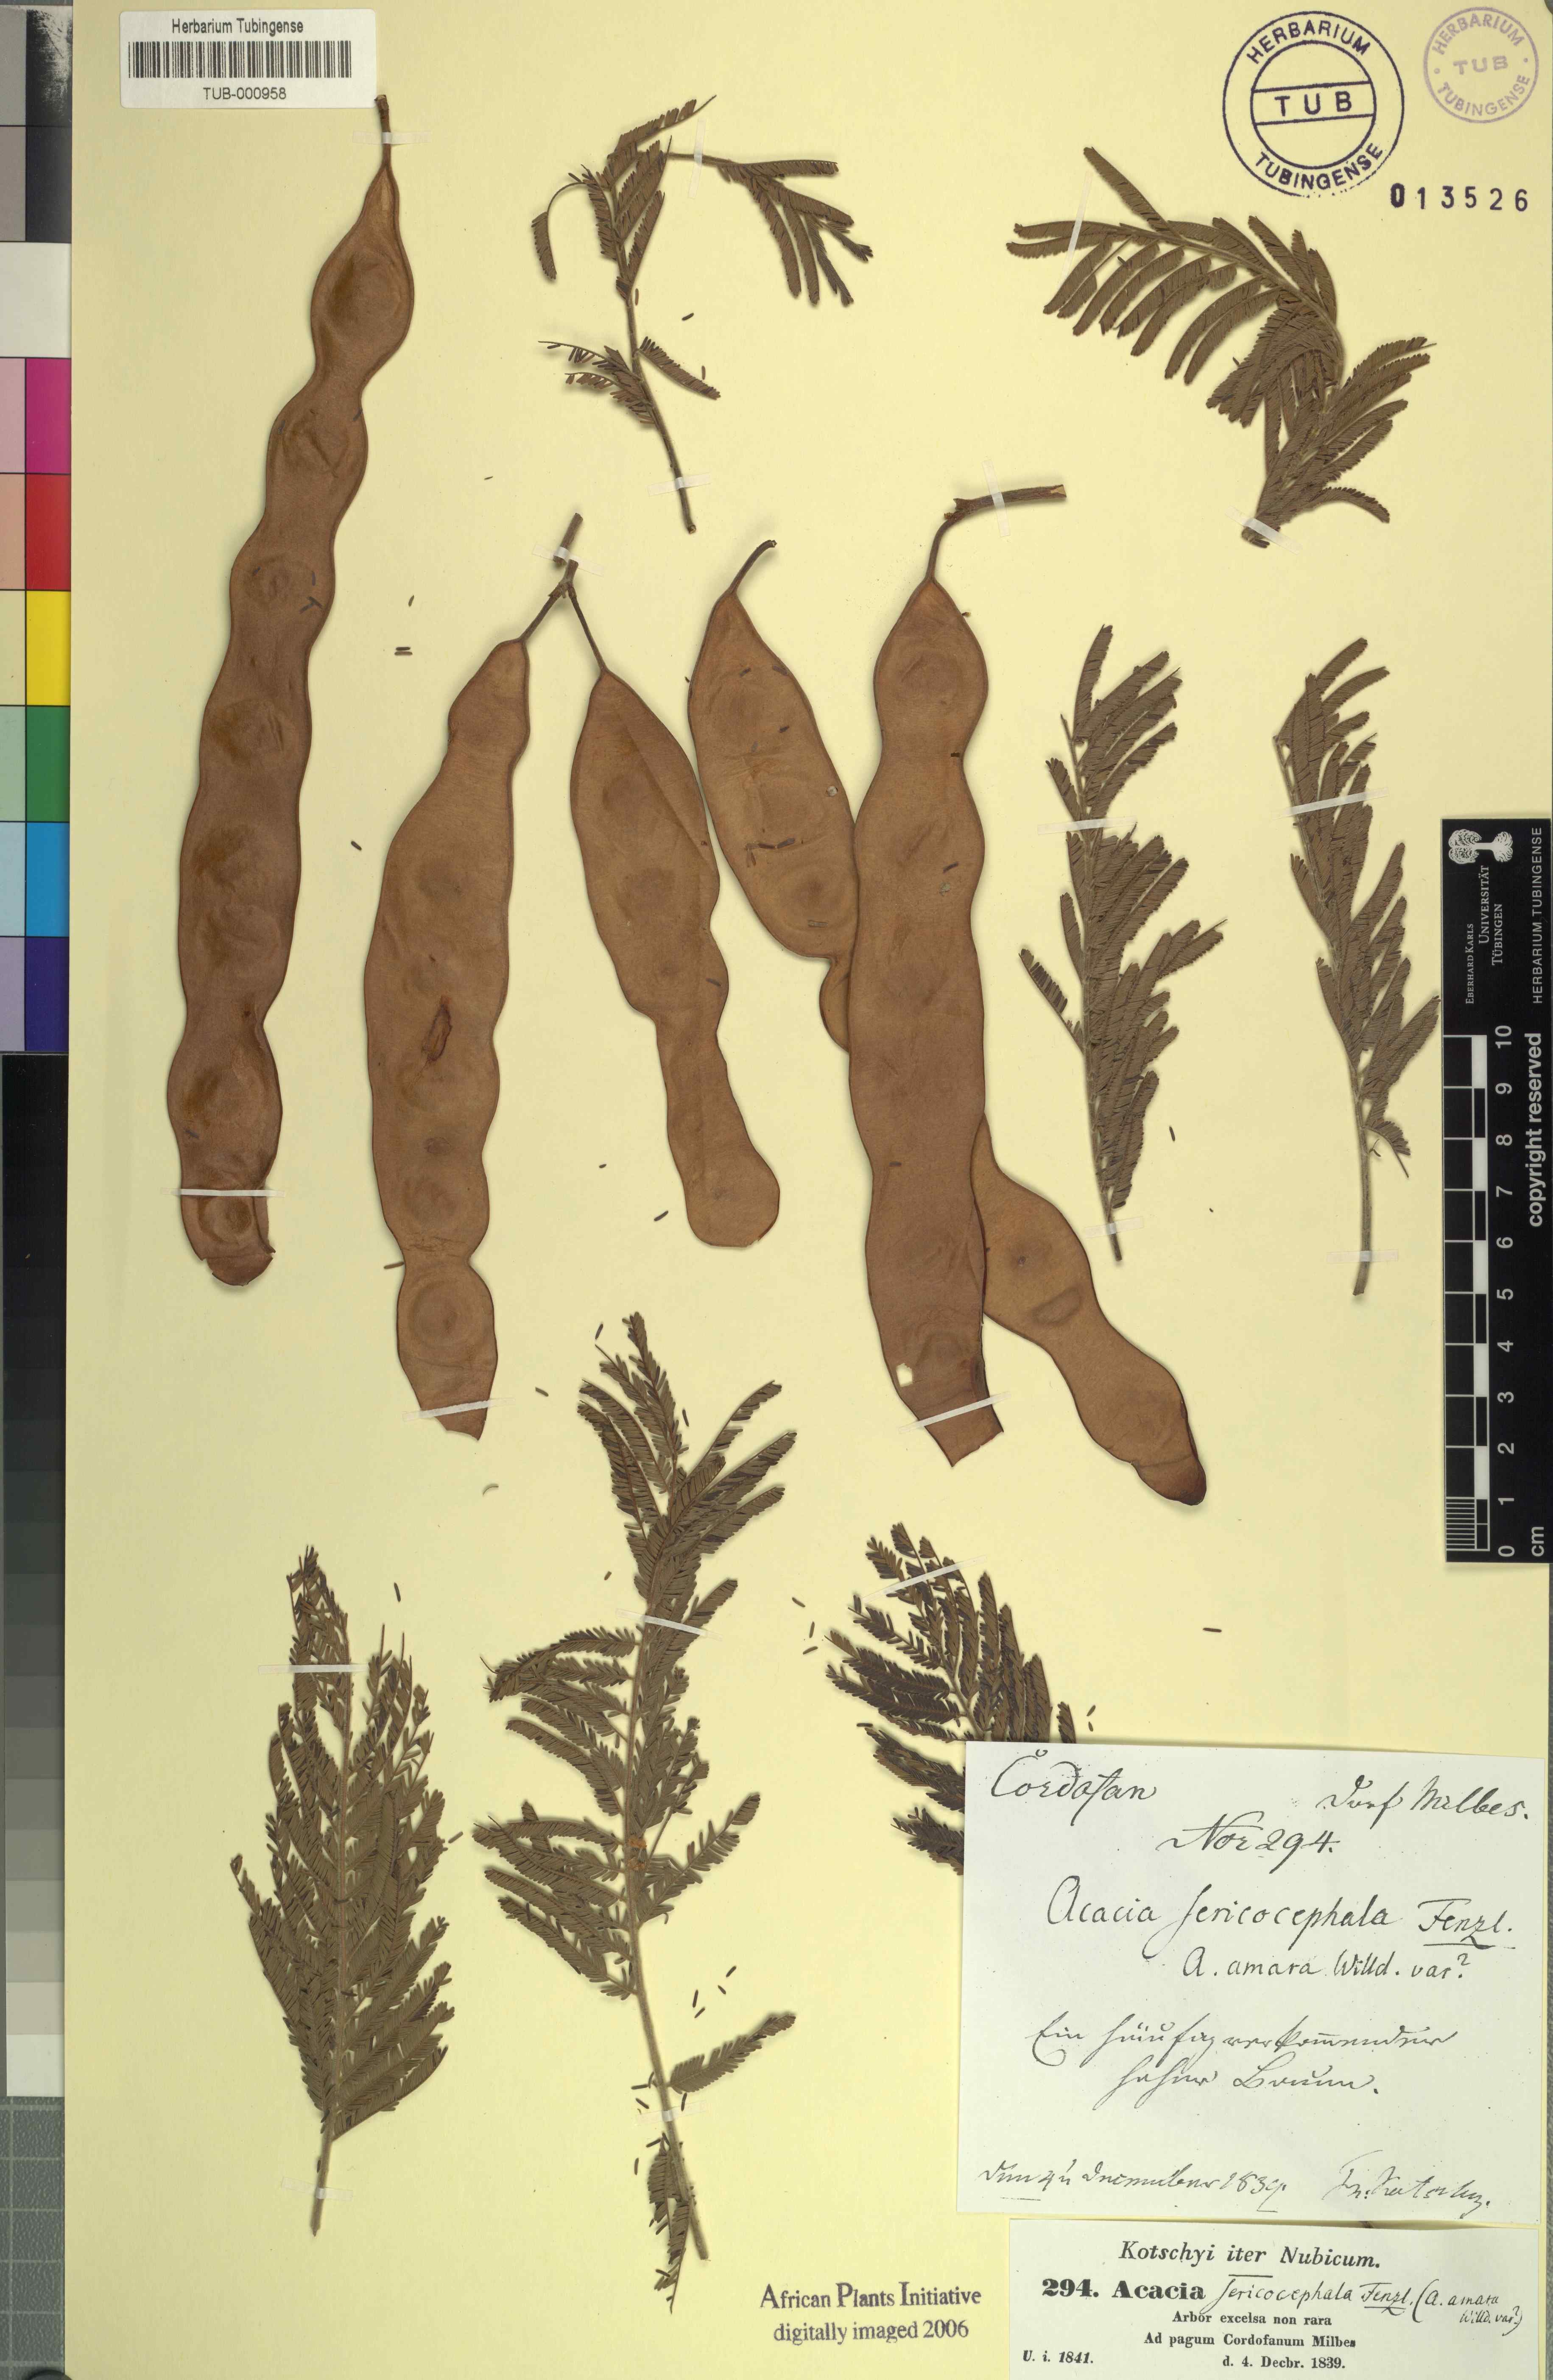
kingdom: Plantae
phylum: Tracheophyta
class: Magnoliopsida
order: Fabales
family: Fabaceae
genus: Albizia
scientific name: Albizia amara
